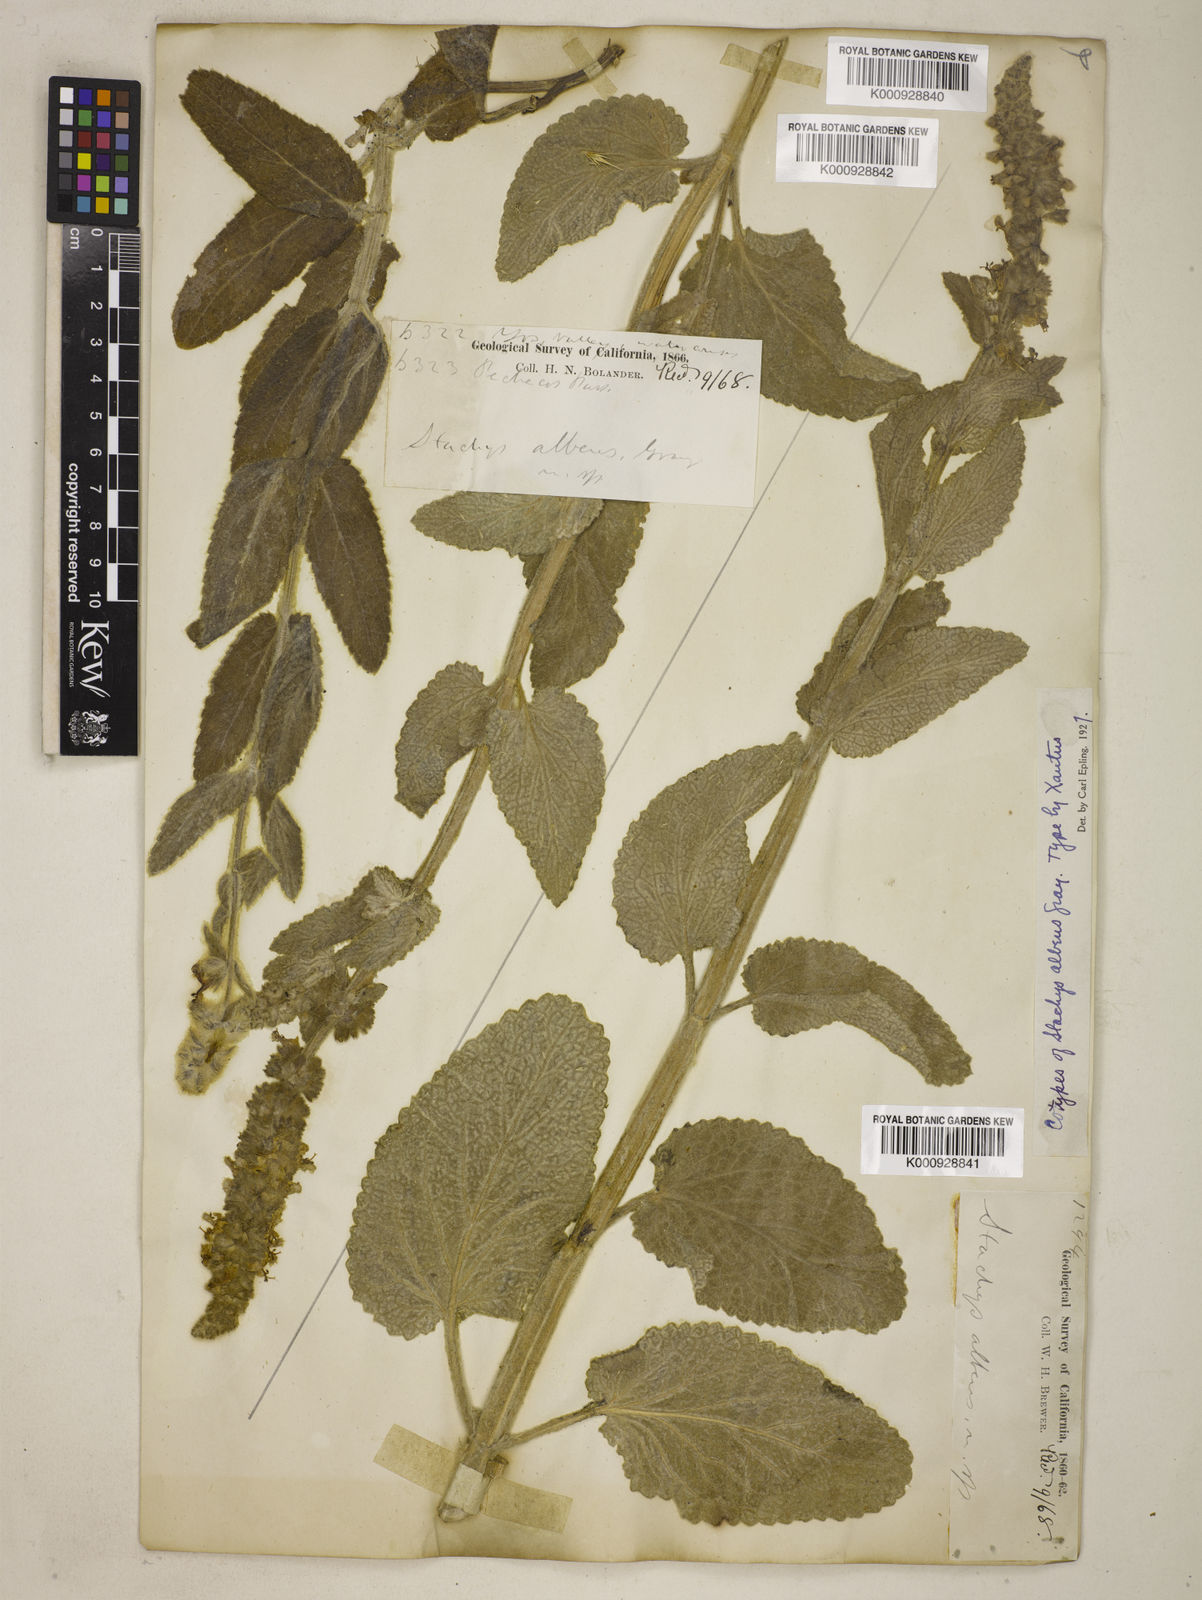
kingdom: Plantae
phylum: Tracheophyta
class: Magnoliopsida
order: Lamiales
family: Lamiaceae
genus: Stachys
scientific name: Stachys albens
